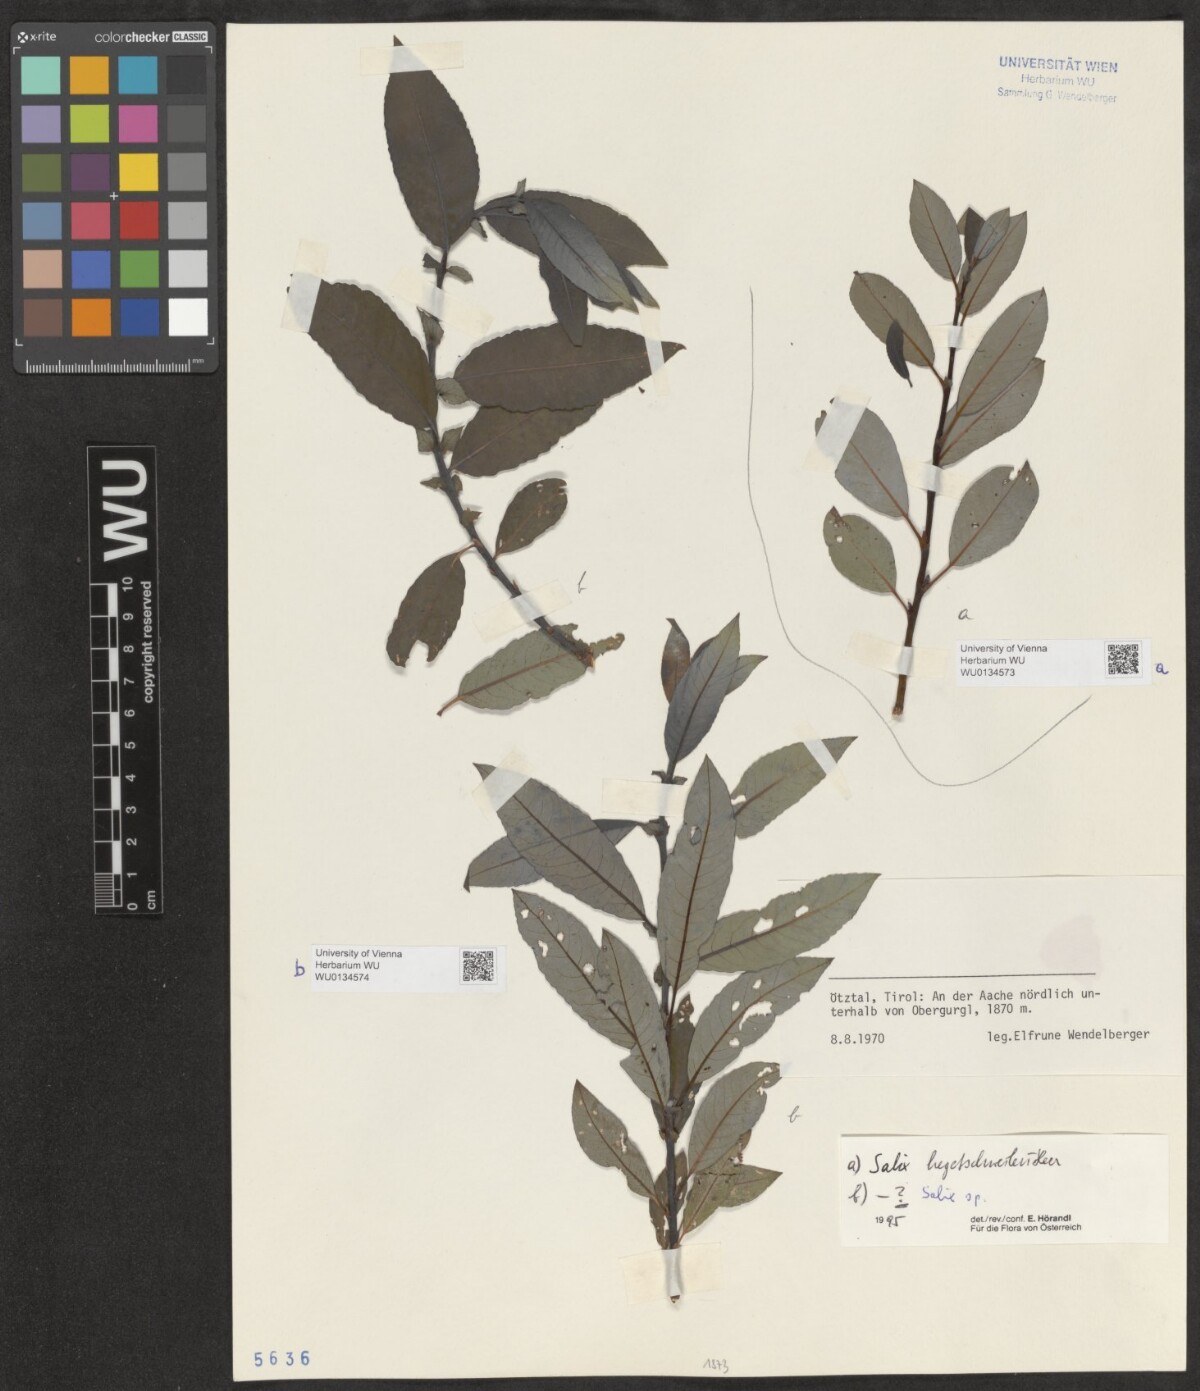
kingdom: Plantae
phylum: Tracheophyta
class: Magnoliopsida
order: Malpighiales
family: Salicaceae
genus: Salix
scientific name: Salix hegetschweileri
